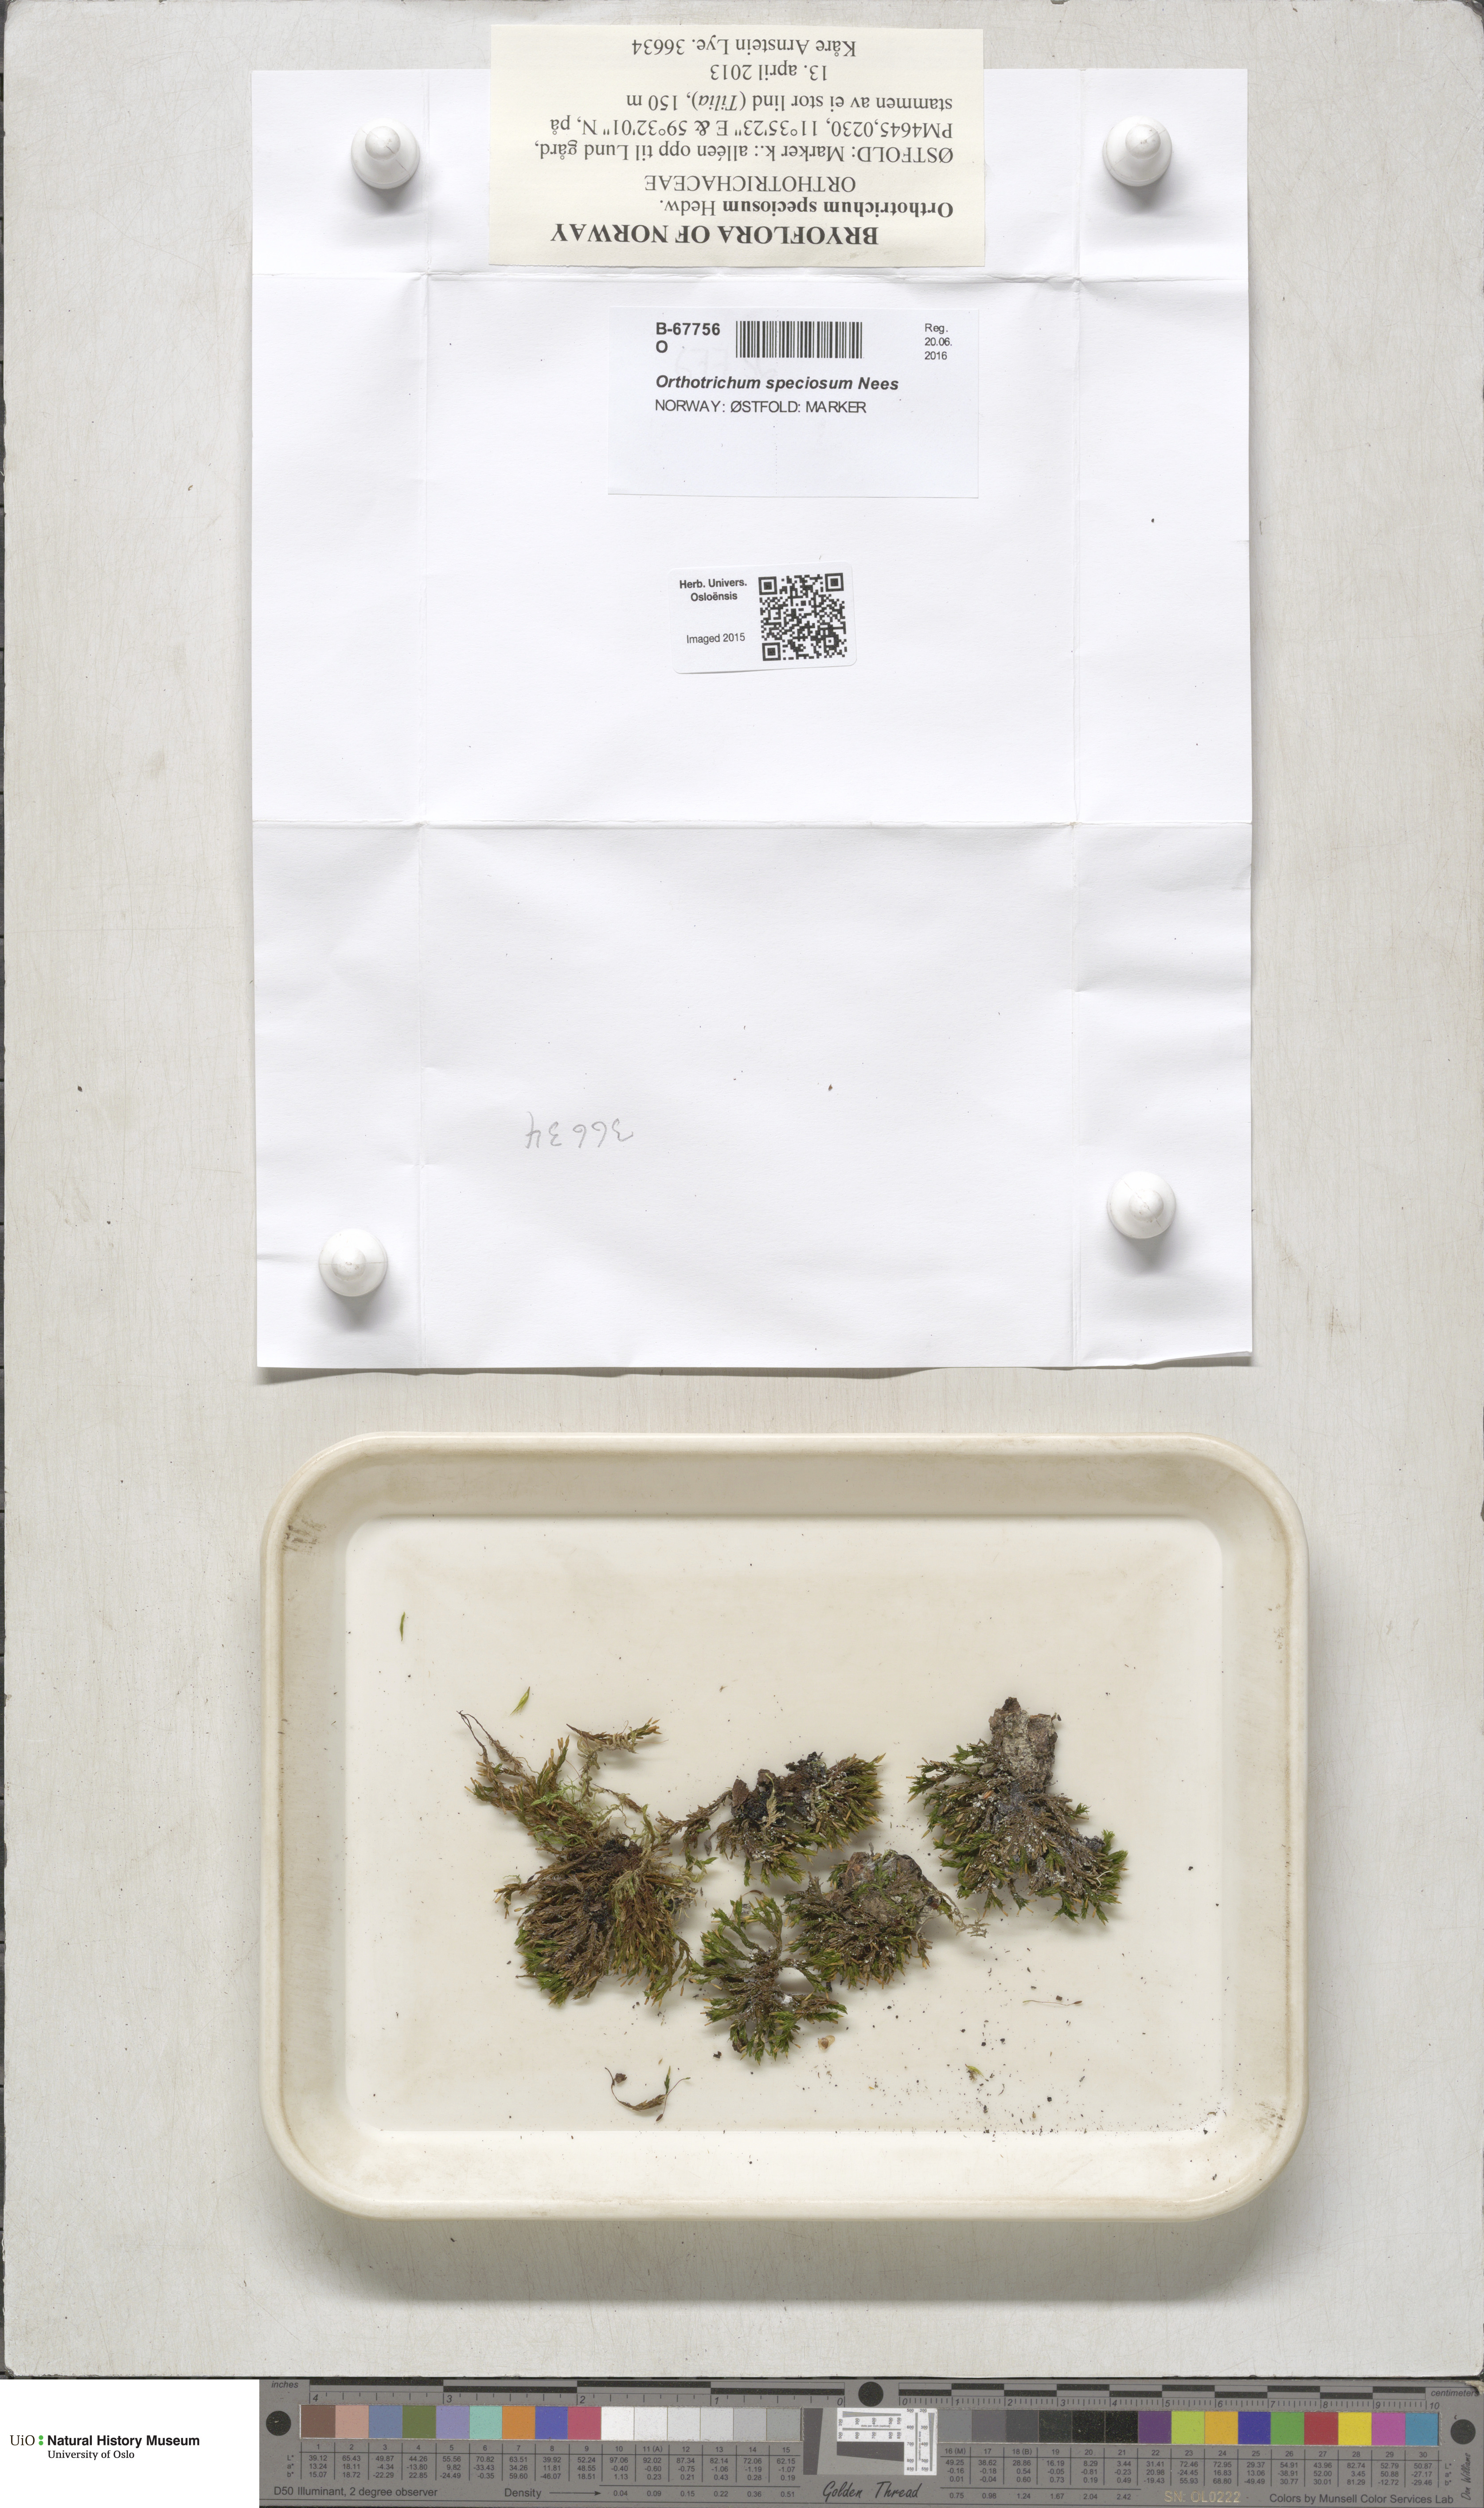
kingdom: Plantae
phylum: Bryophyta
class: Bryopsida
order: Orthotrichales
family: Orthotrichaceae
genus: Lewinskya
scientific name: Lewinskya speciosa
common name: Showy bristle moss
